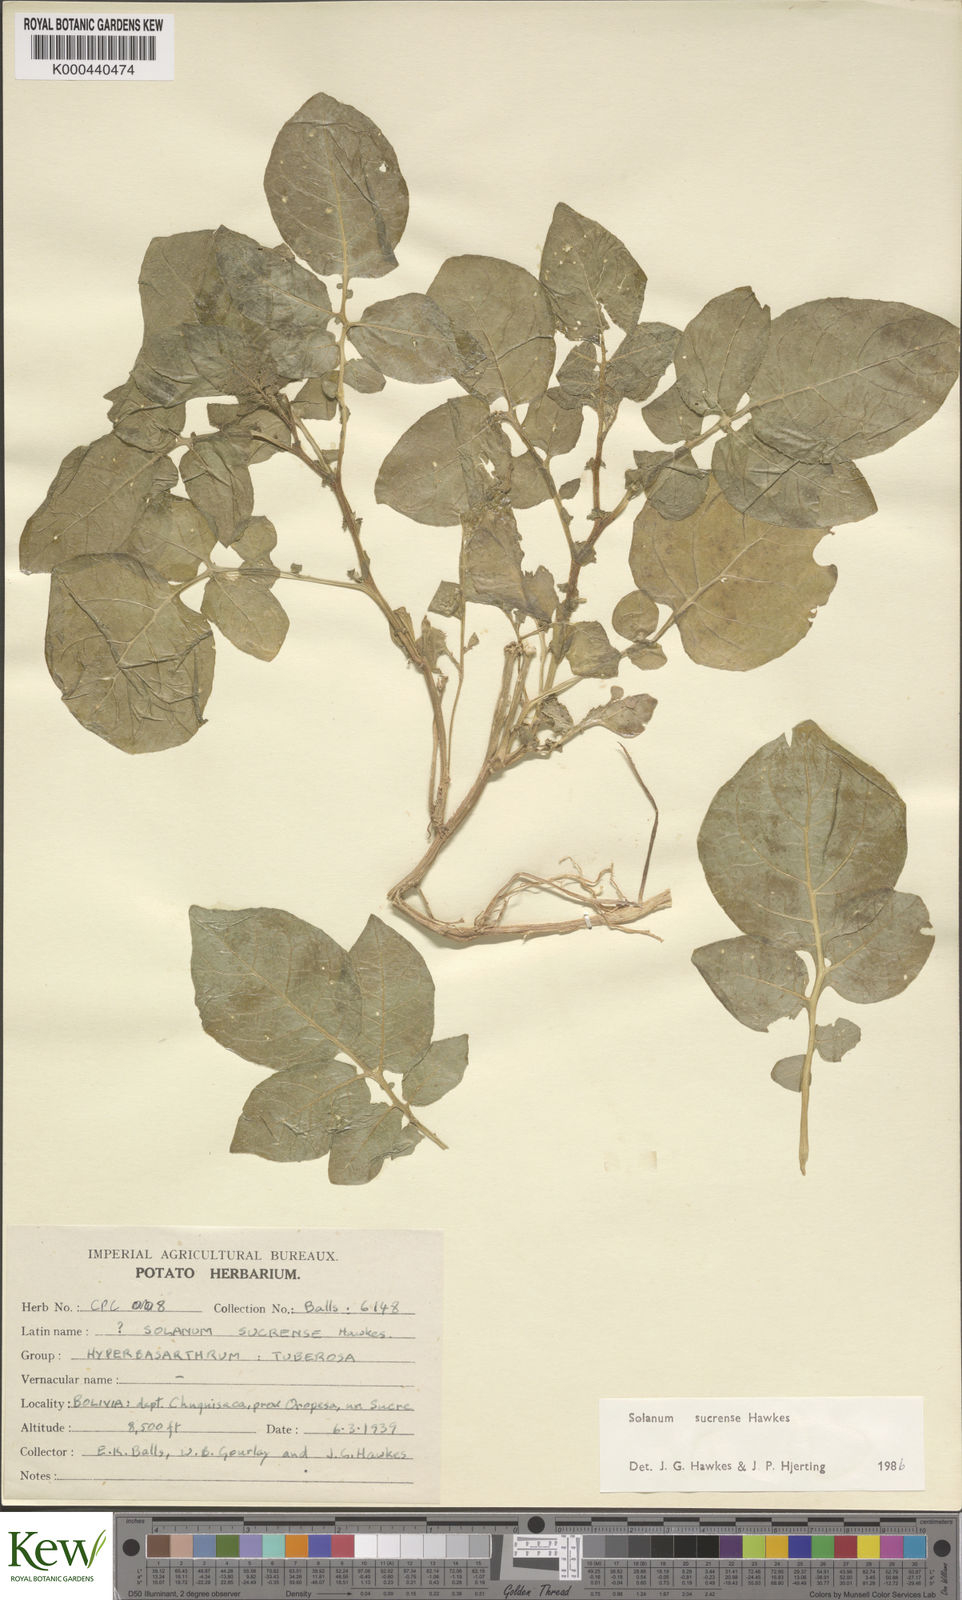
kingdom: Plantae
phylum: Tracheophyta
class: Magnoliopsida
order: Solanales
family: Solanaceae
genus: Solanum
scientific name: Solanum brevicaule
